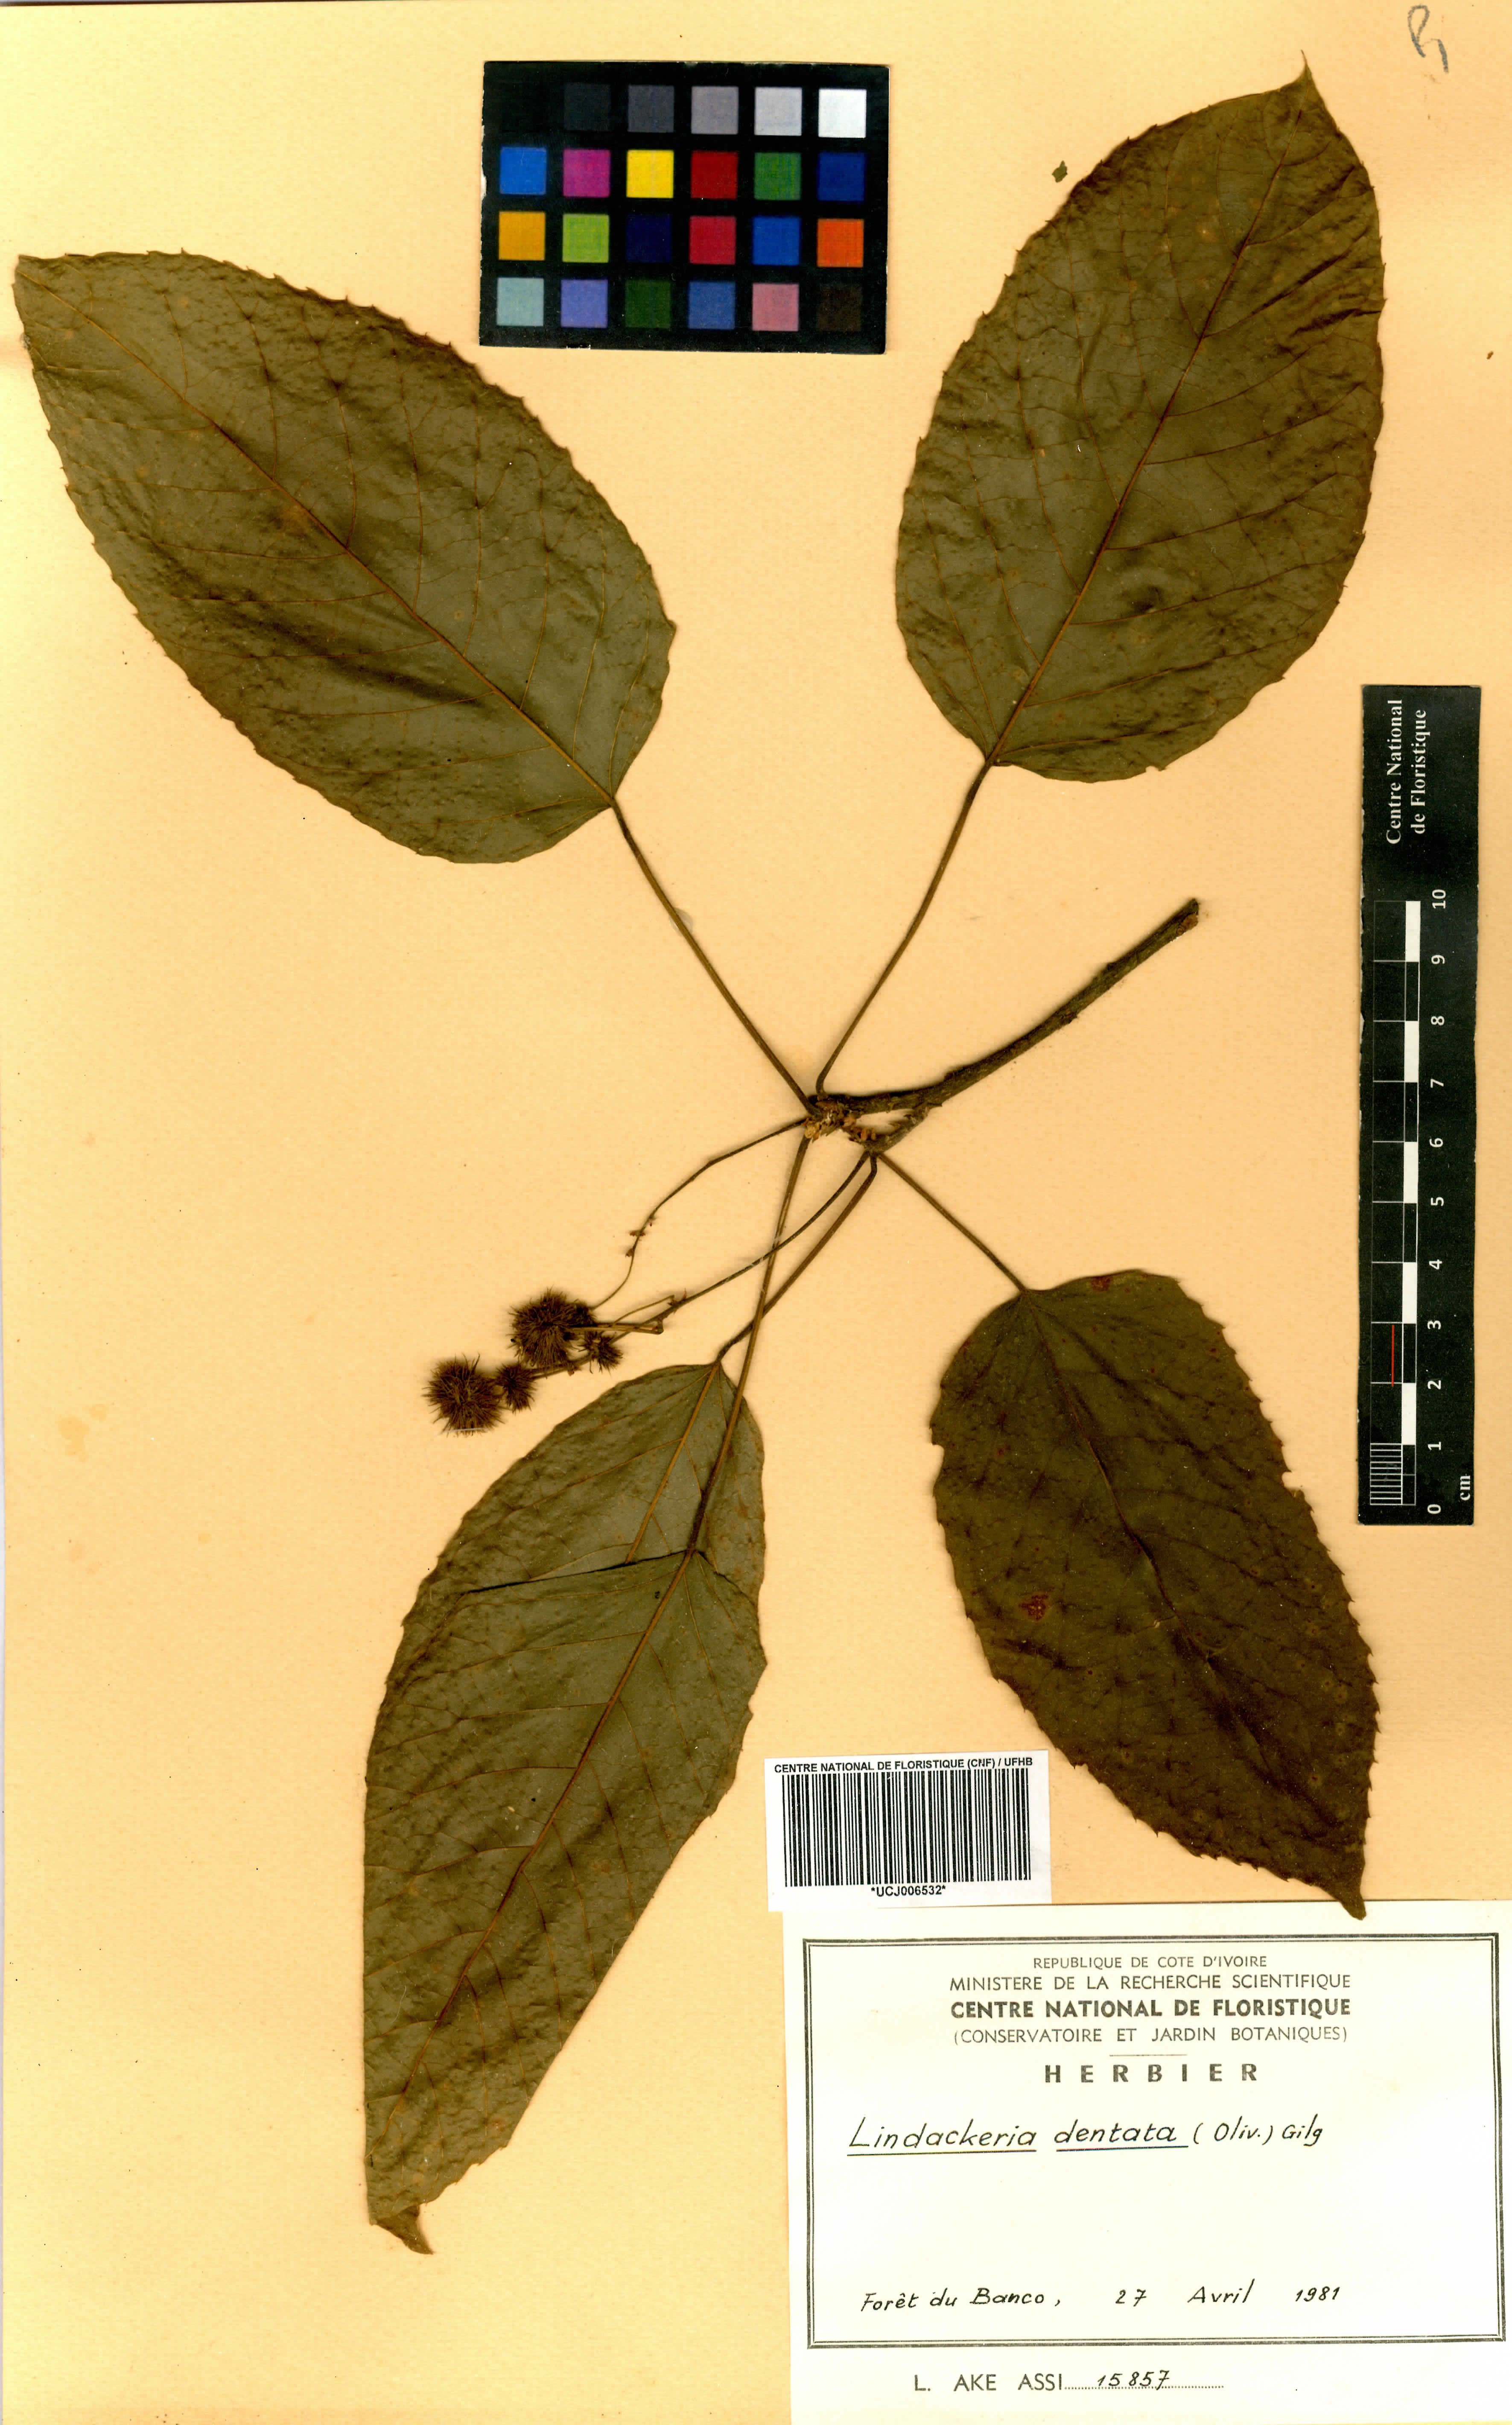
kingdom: Plantae
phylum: Tracheophyta
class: Magnoliopsida
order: Malpighiales
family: Achariaceae
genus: Lindackeria
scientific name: Lindackeria dentata
